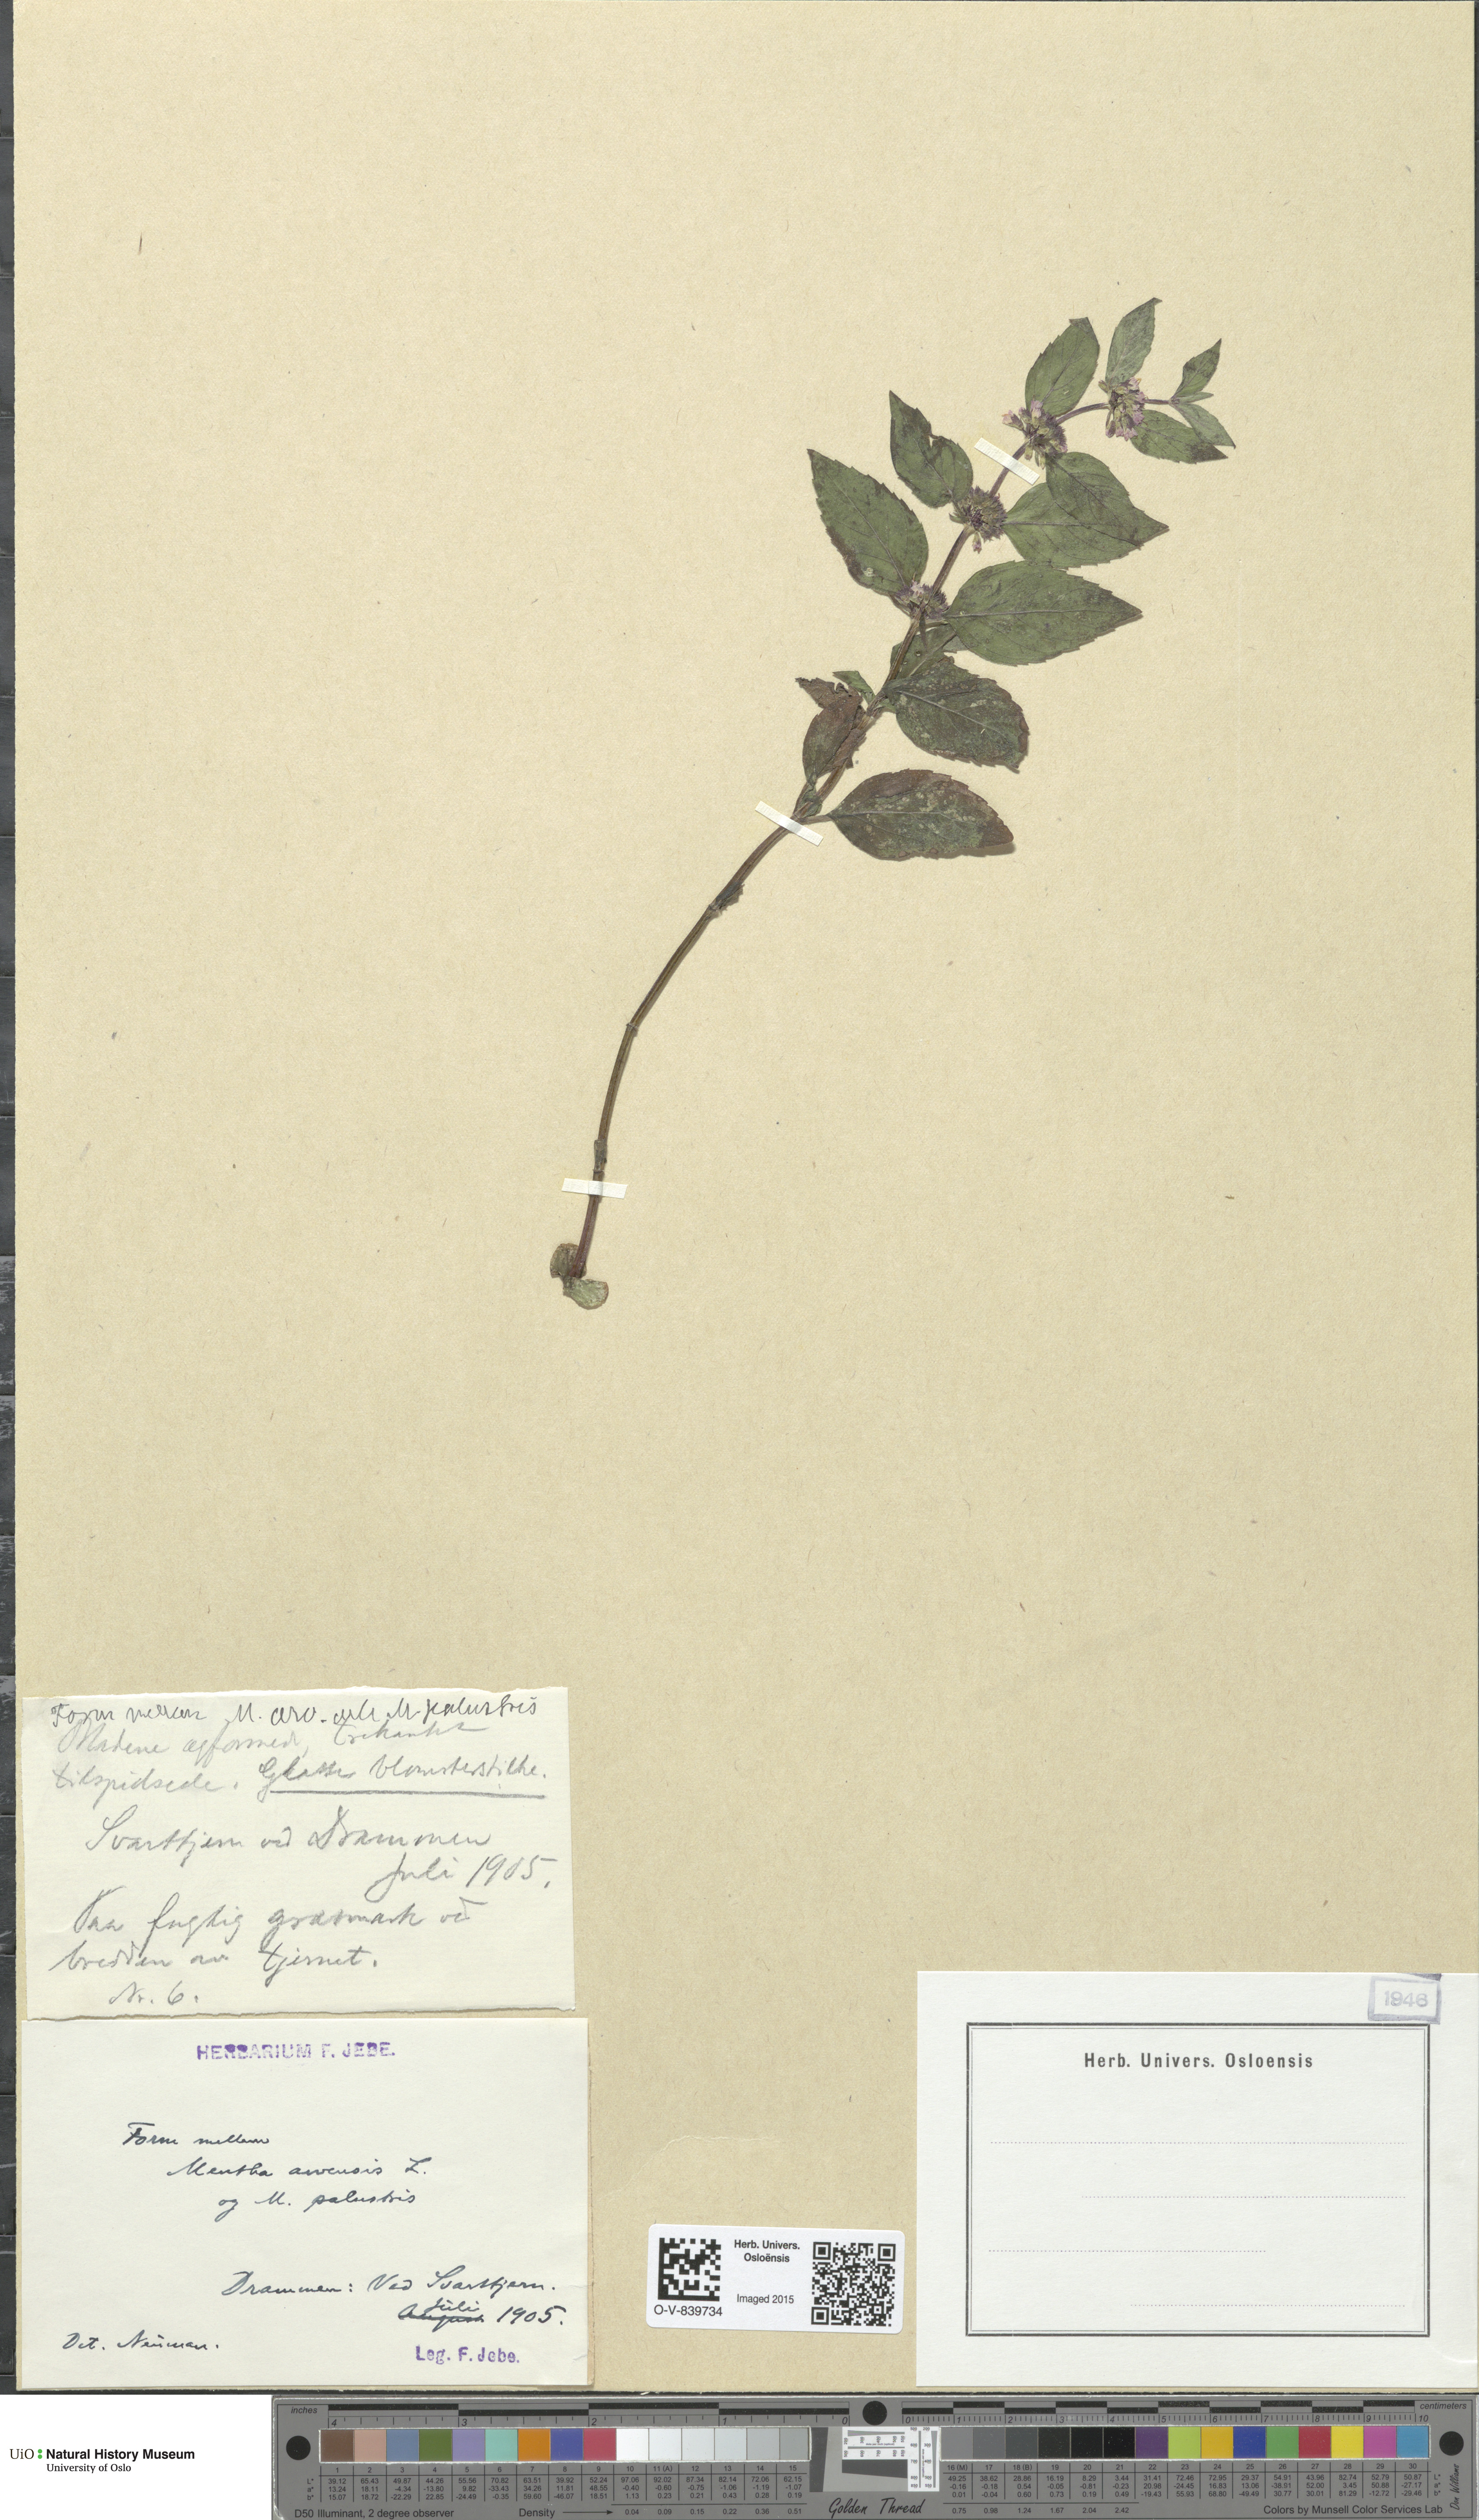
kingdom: Plantae
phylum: Tracheophyta
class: Magnoliopsida
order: Lamiales
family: Lamiaceae
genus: Mentha
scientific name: Mentha arvensis
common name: Corn mint
